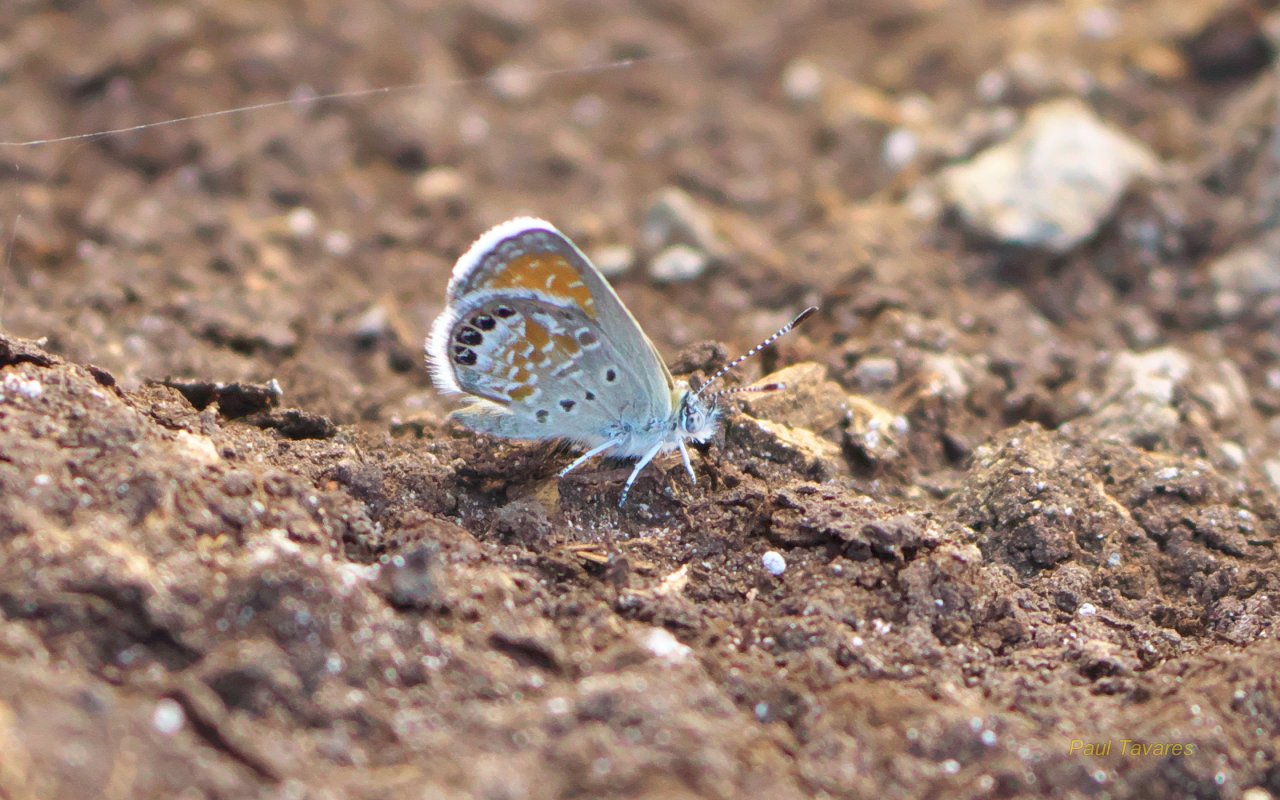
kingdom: Animalia
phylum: Arthropoda
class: Insecta
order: Lepidoptera
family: Lycaenidae
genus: Brephidium
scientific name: Brephidium exilis
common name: Western Pygmy-Blue
